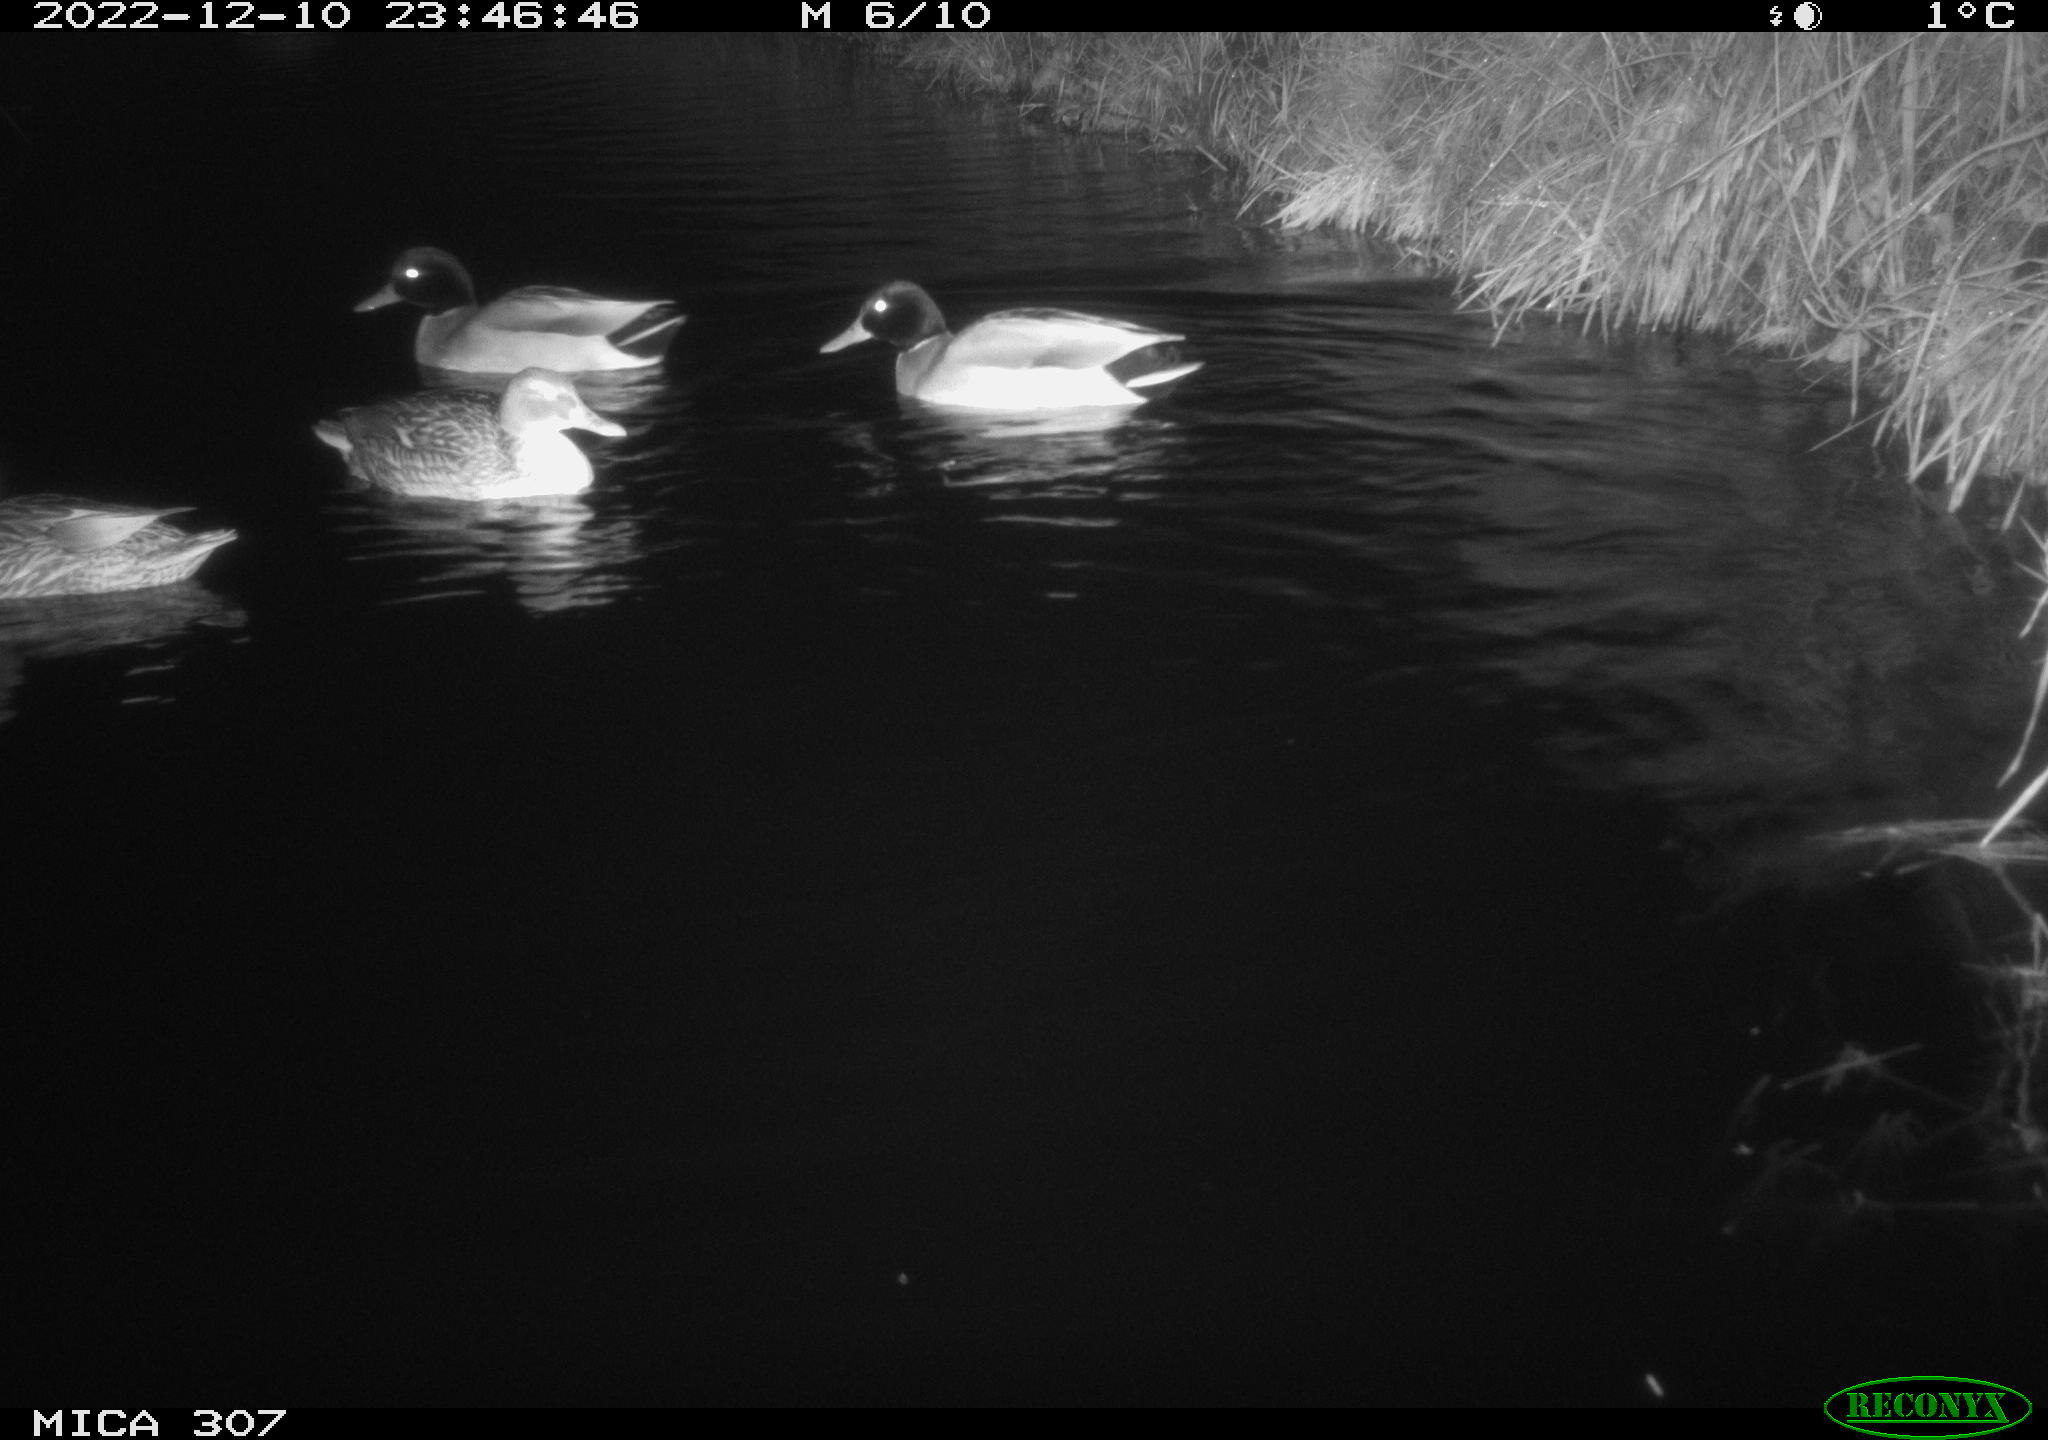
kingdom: Animalia
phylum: Chordata
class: Aves
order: Anseriformes
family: Anatidae
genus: Anas
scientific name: Anas
